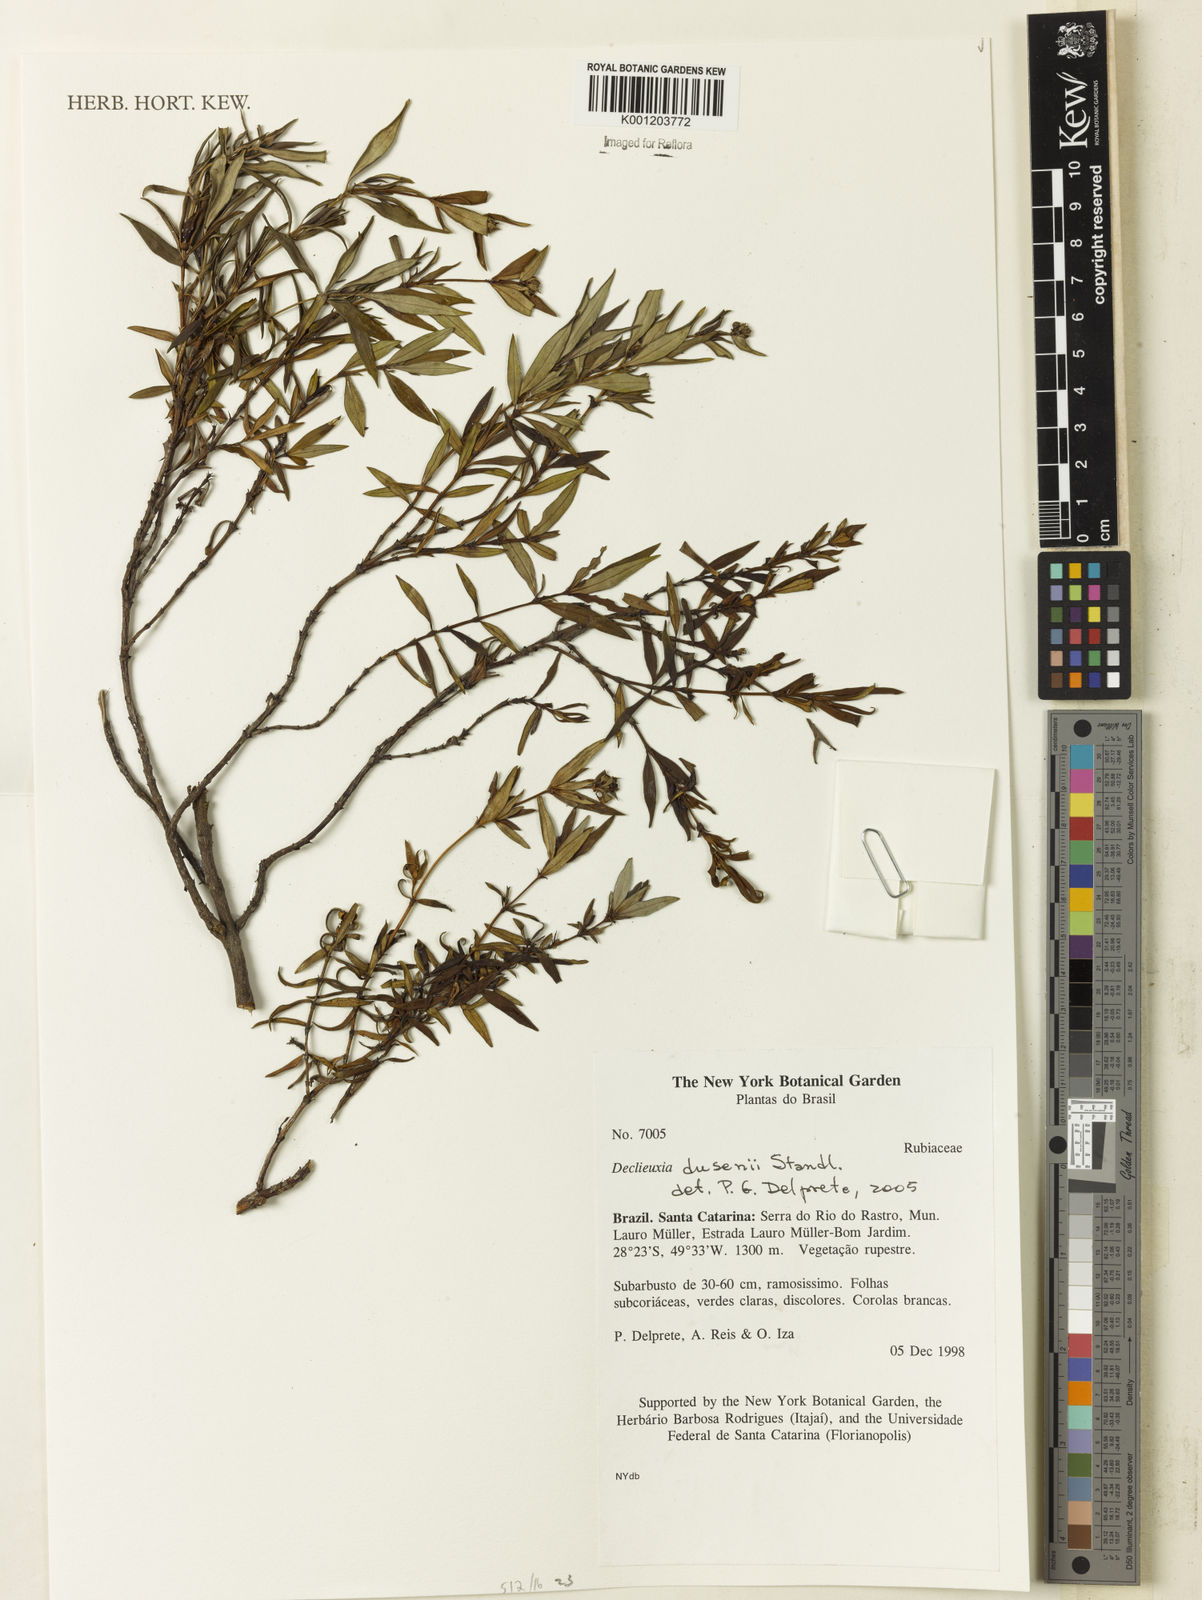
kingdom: Plantae
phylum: Tracheophyta
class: Magnoliopsida
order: Gentianales
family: Rubiaceae
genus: Declieuxia
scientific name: Declieuxia dusenii
